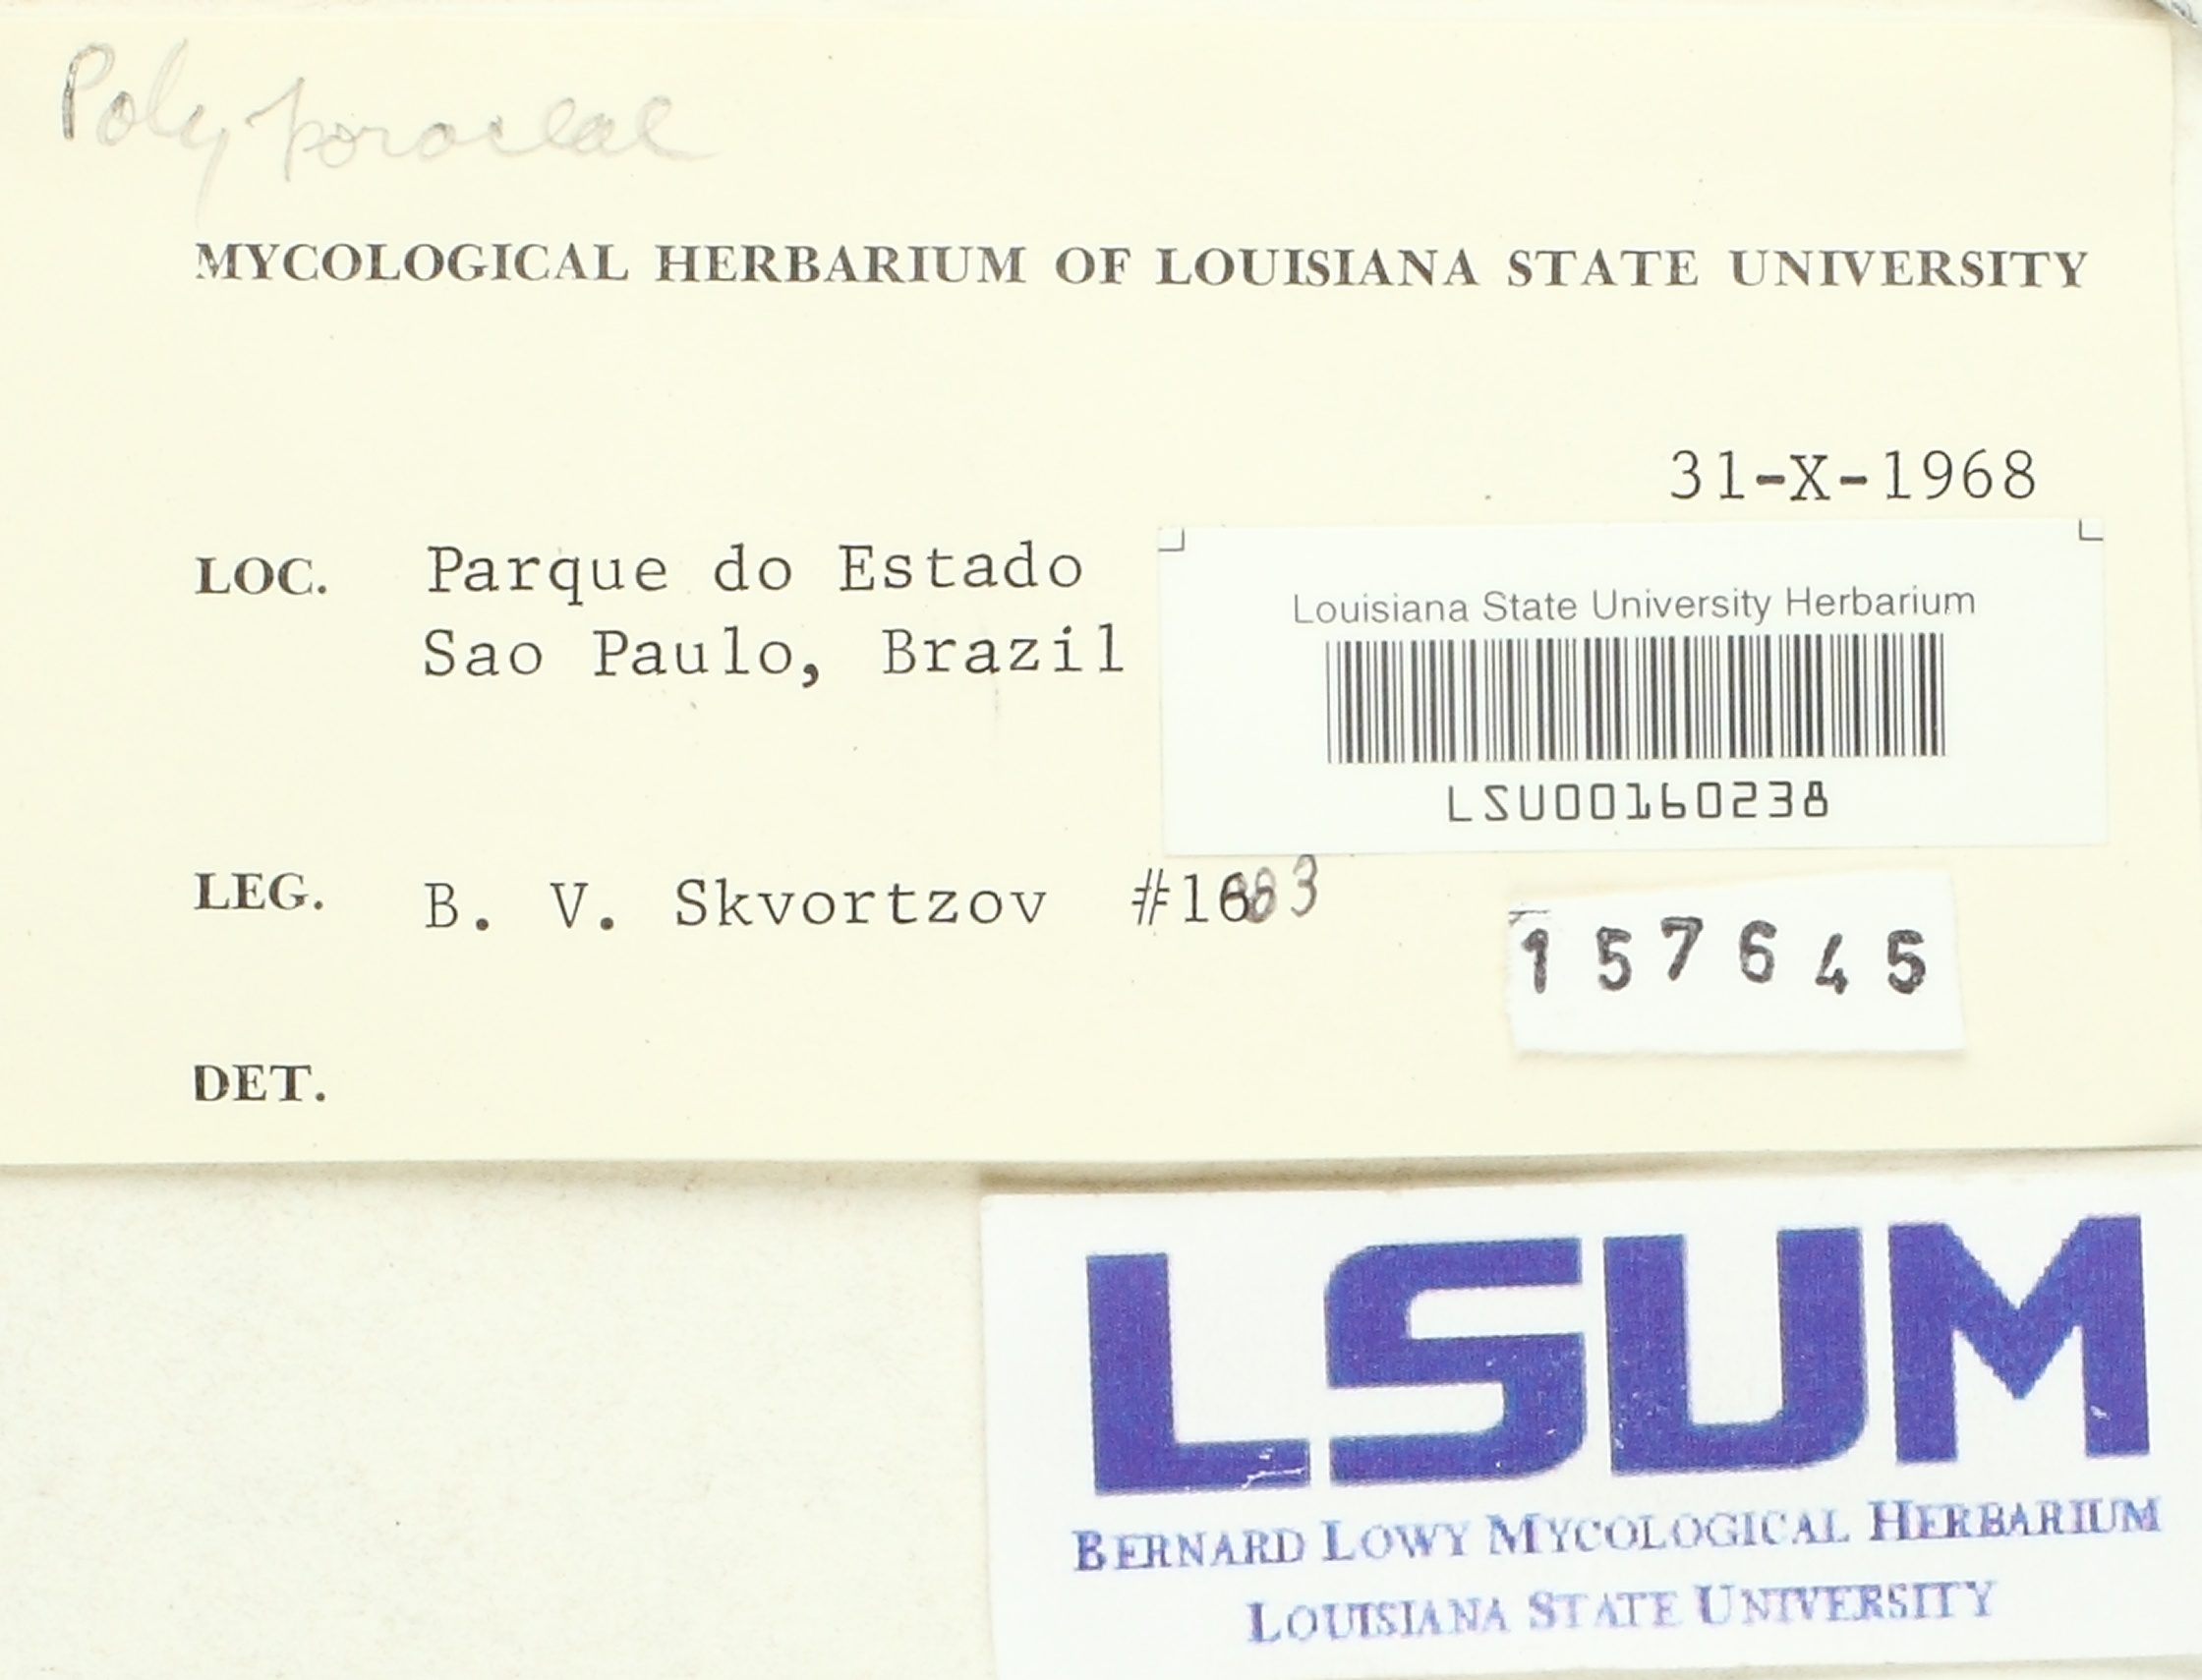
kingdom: Fungi
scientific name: Fungi
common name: Fungi
